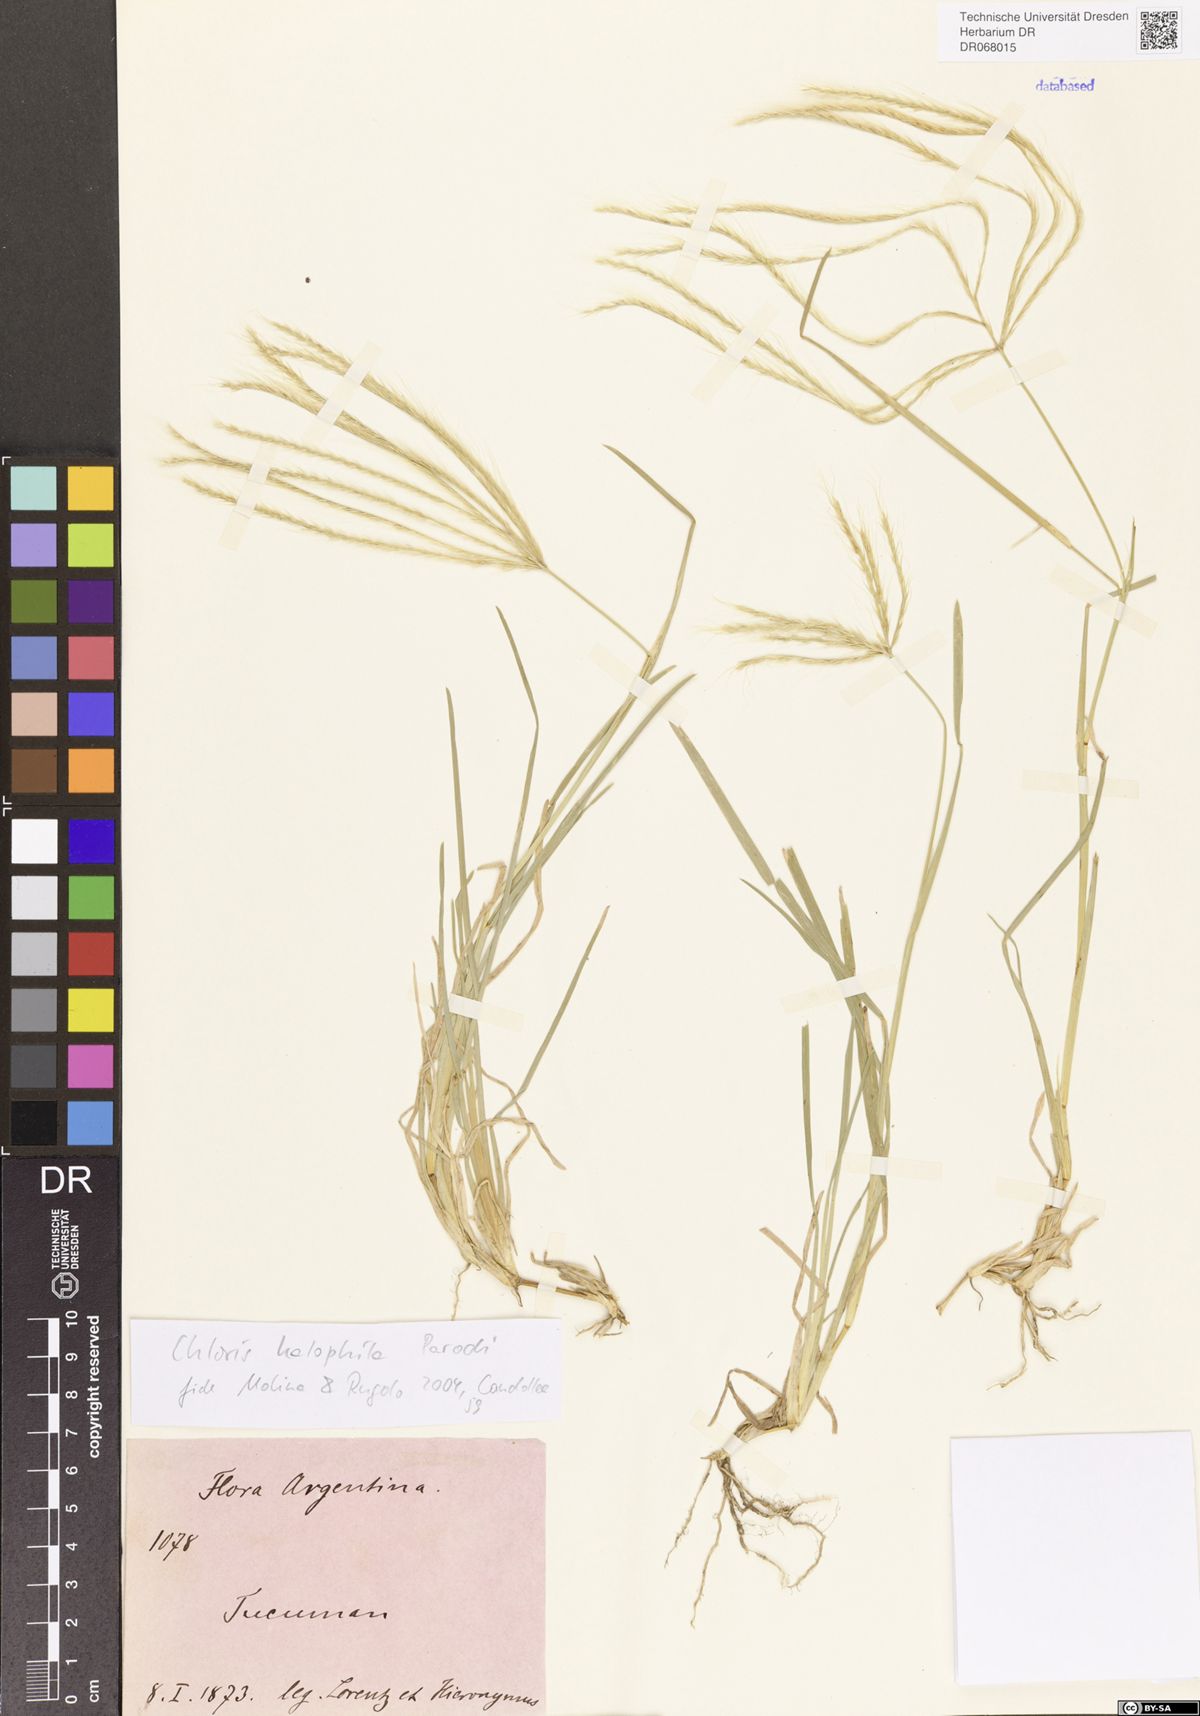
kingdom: Plantae
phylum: Tracheophyta
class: Liliopsida
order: Poales
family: Poaceae
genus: Chloris
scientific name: Chloris halophila
